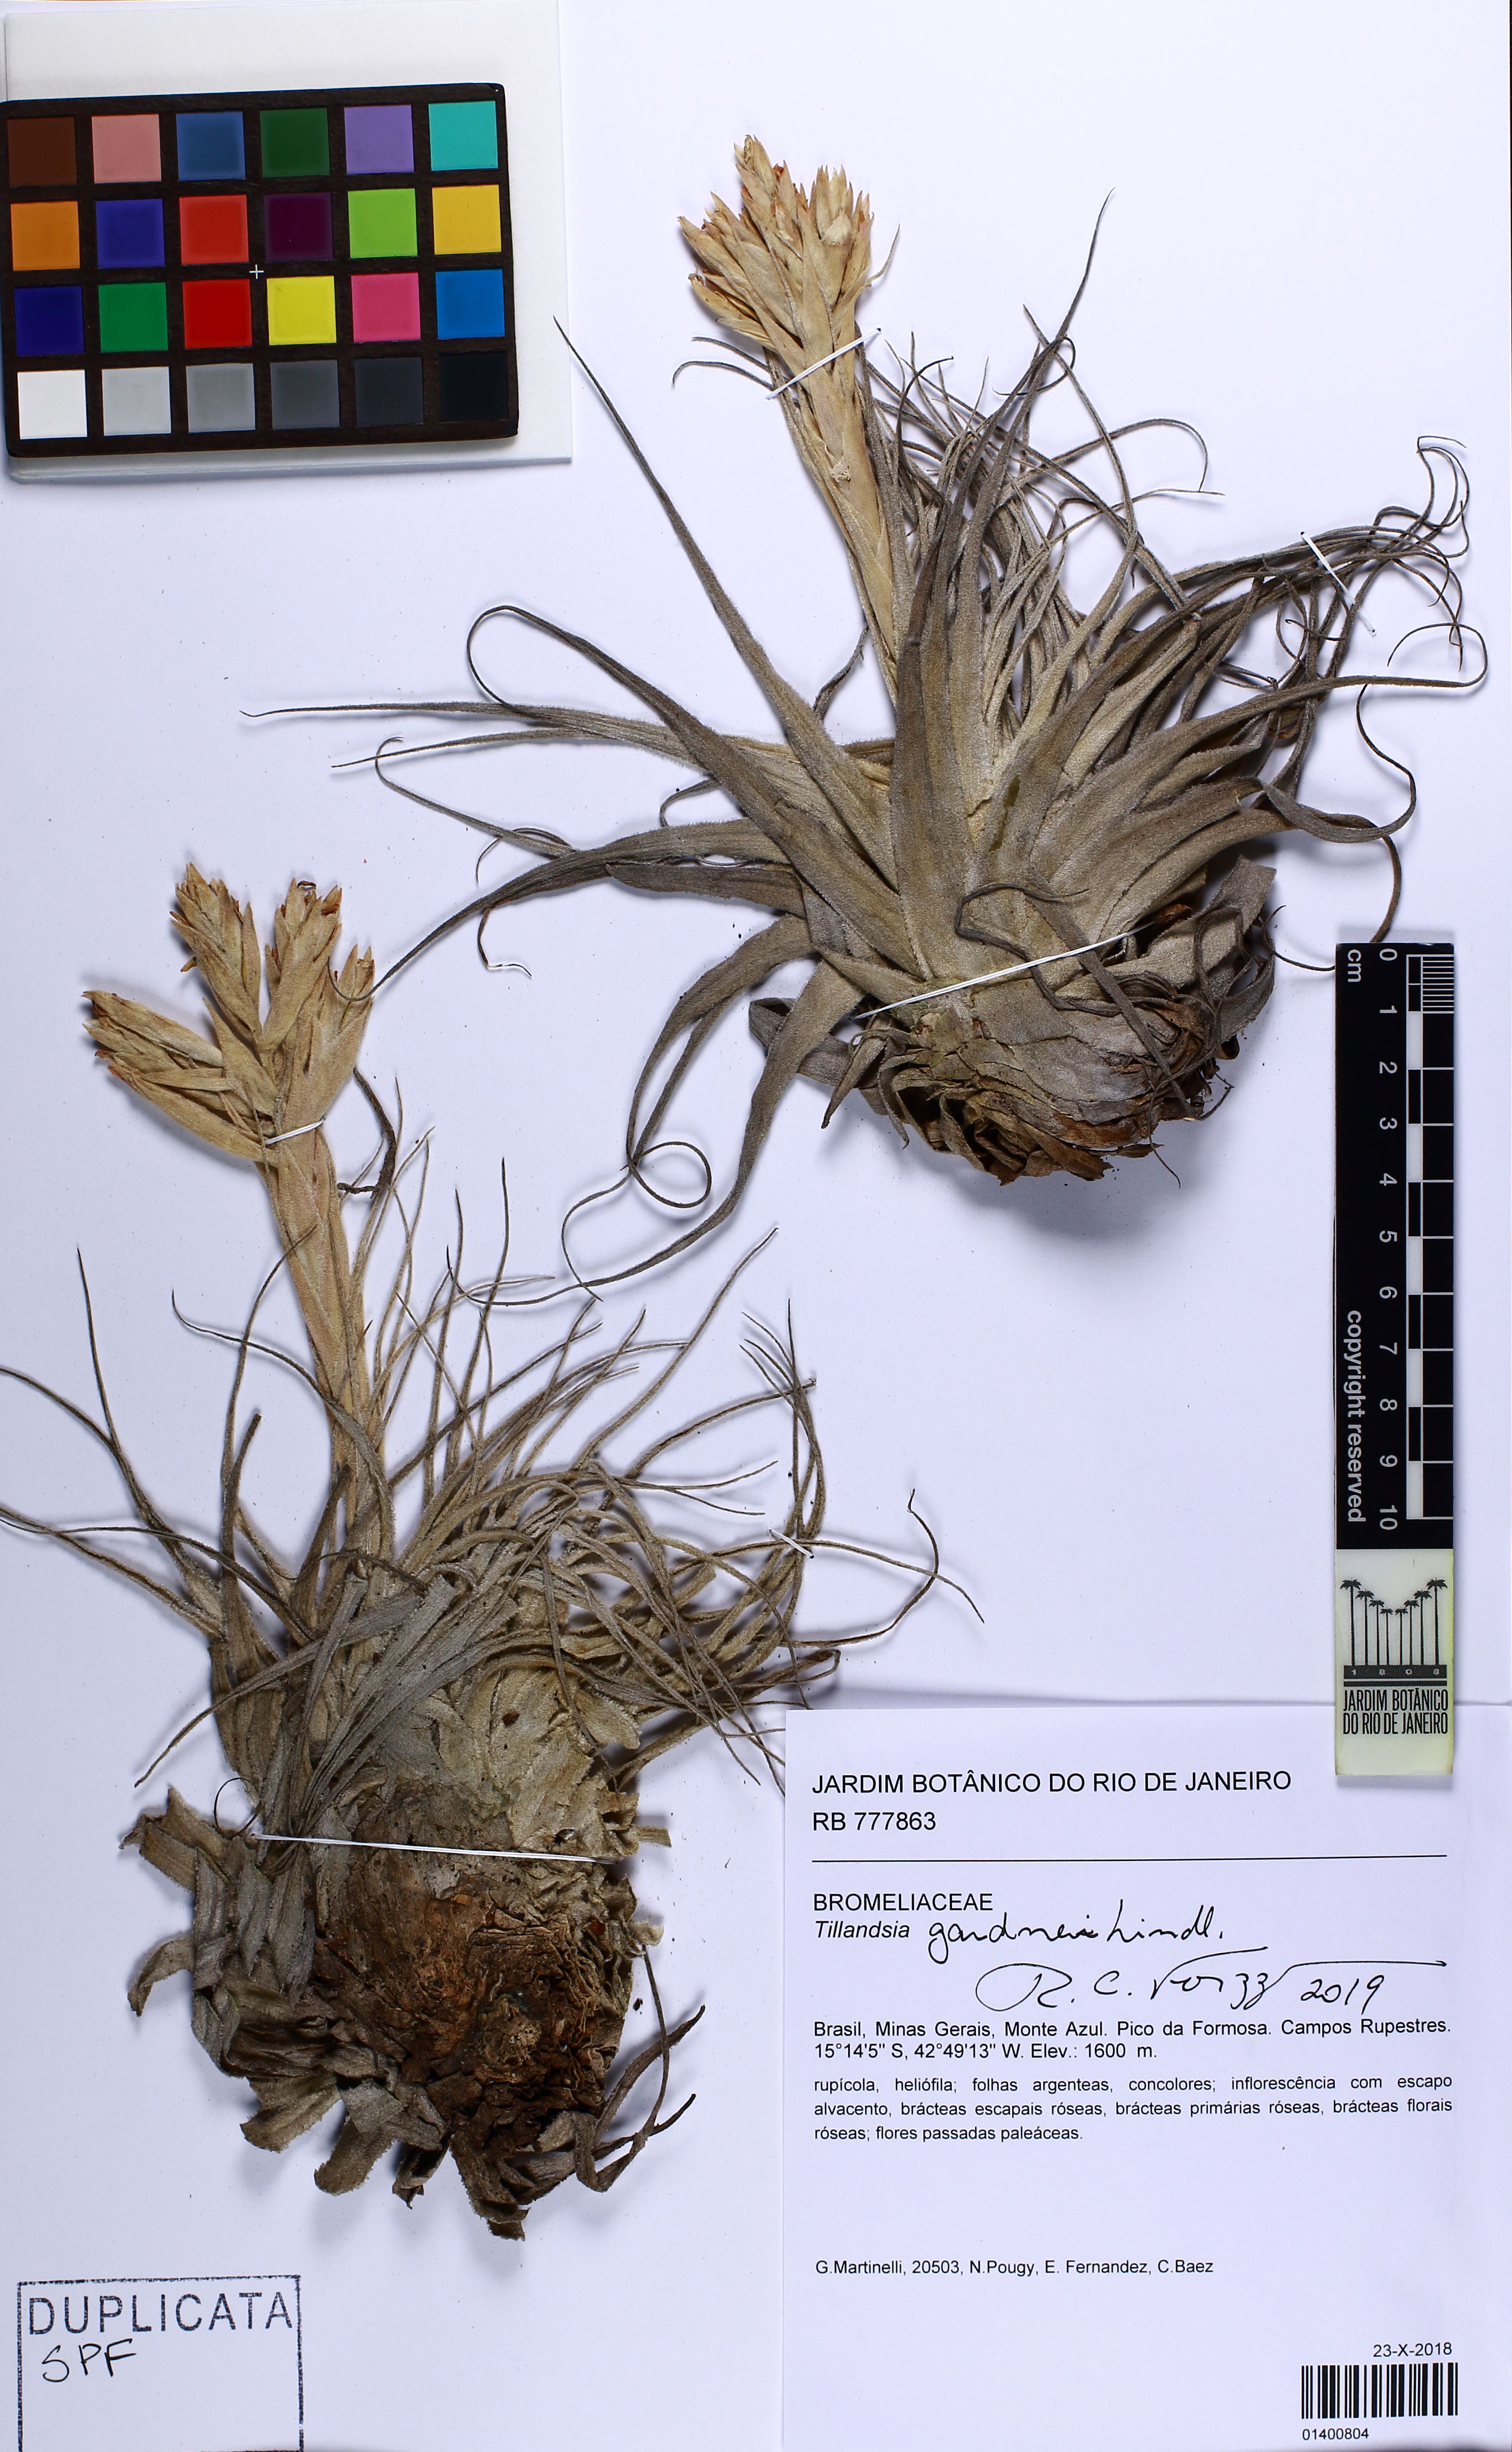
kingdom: Plantae
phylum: Tracheophyta
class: Liliopsida
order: Poales
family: Bromeliaceae
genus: Tillandsia
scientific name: Tillandsia gardneri
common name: Airplant
